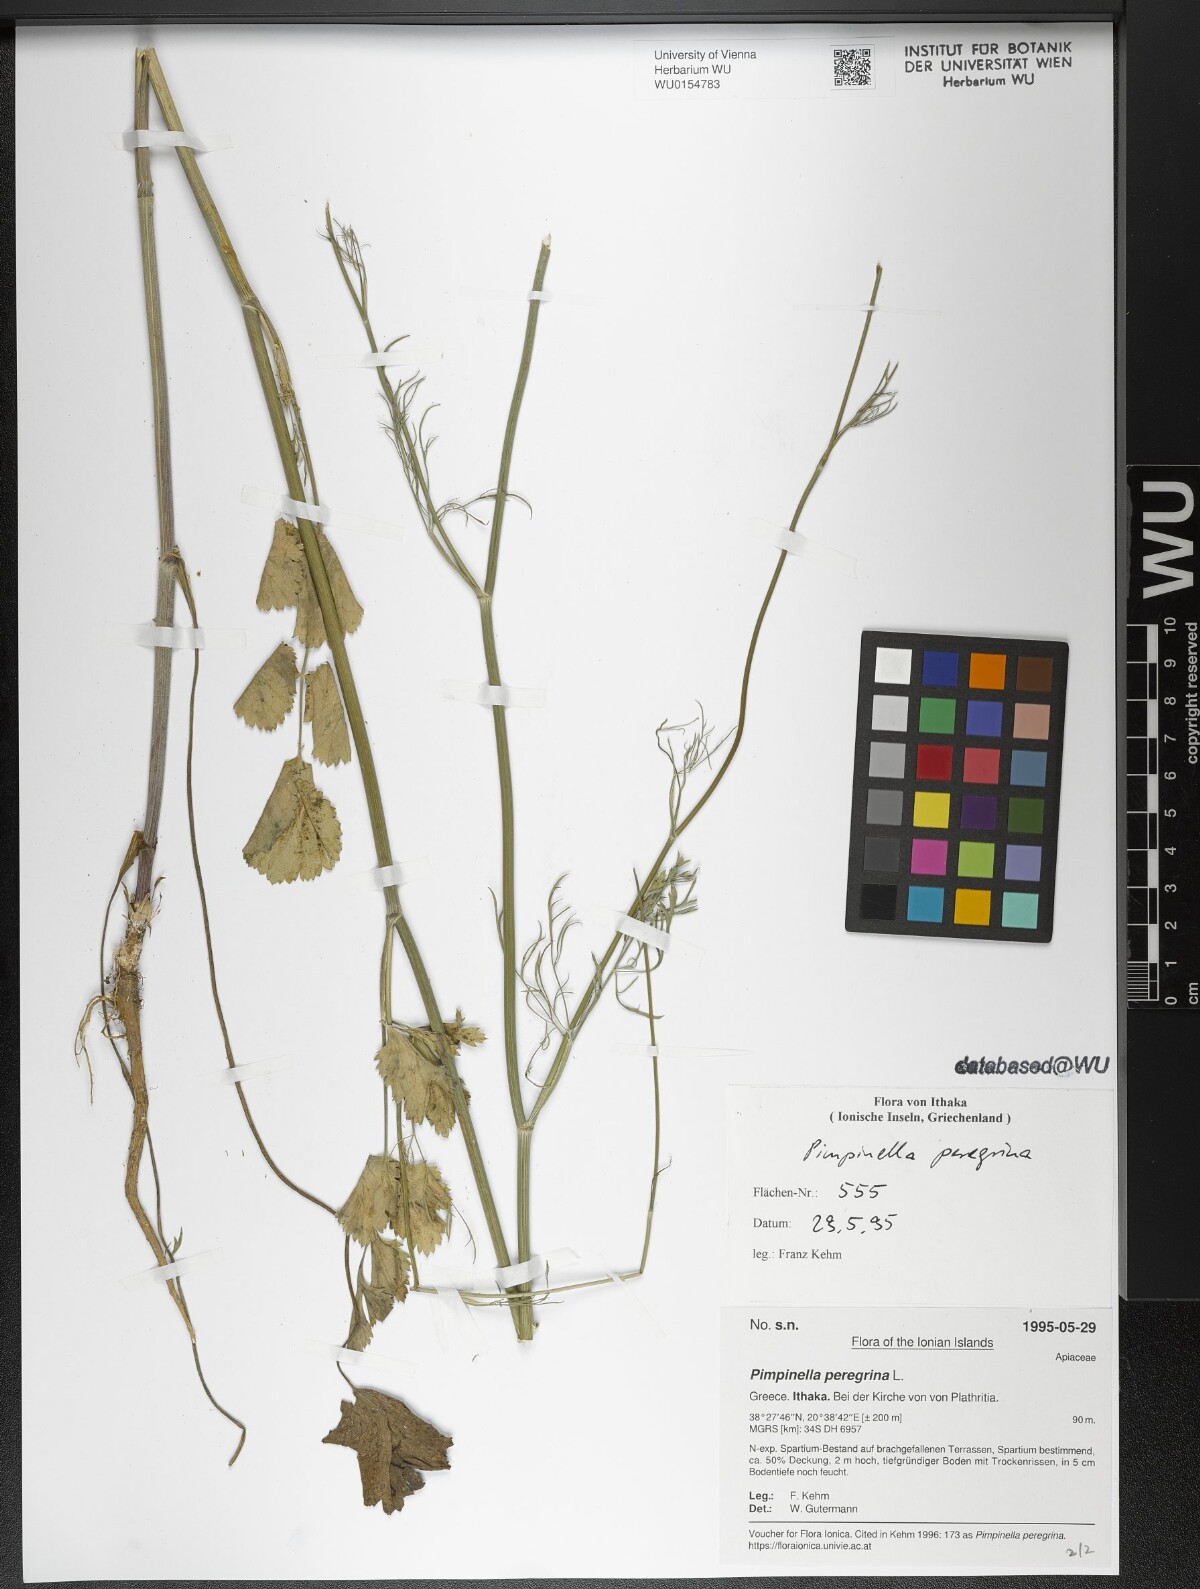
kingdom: Plantae
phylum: Tracheophyta
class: Magnoliopsida
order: Apiales
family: Apiaceae
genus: Pimpinella
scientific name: Pimpinella peregrina
